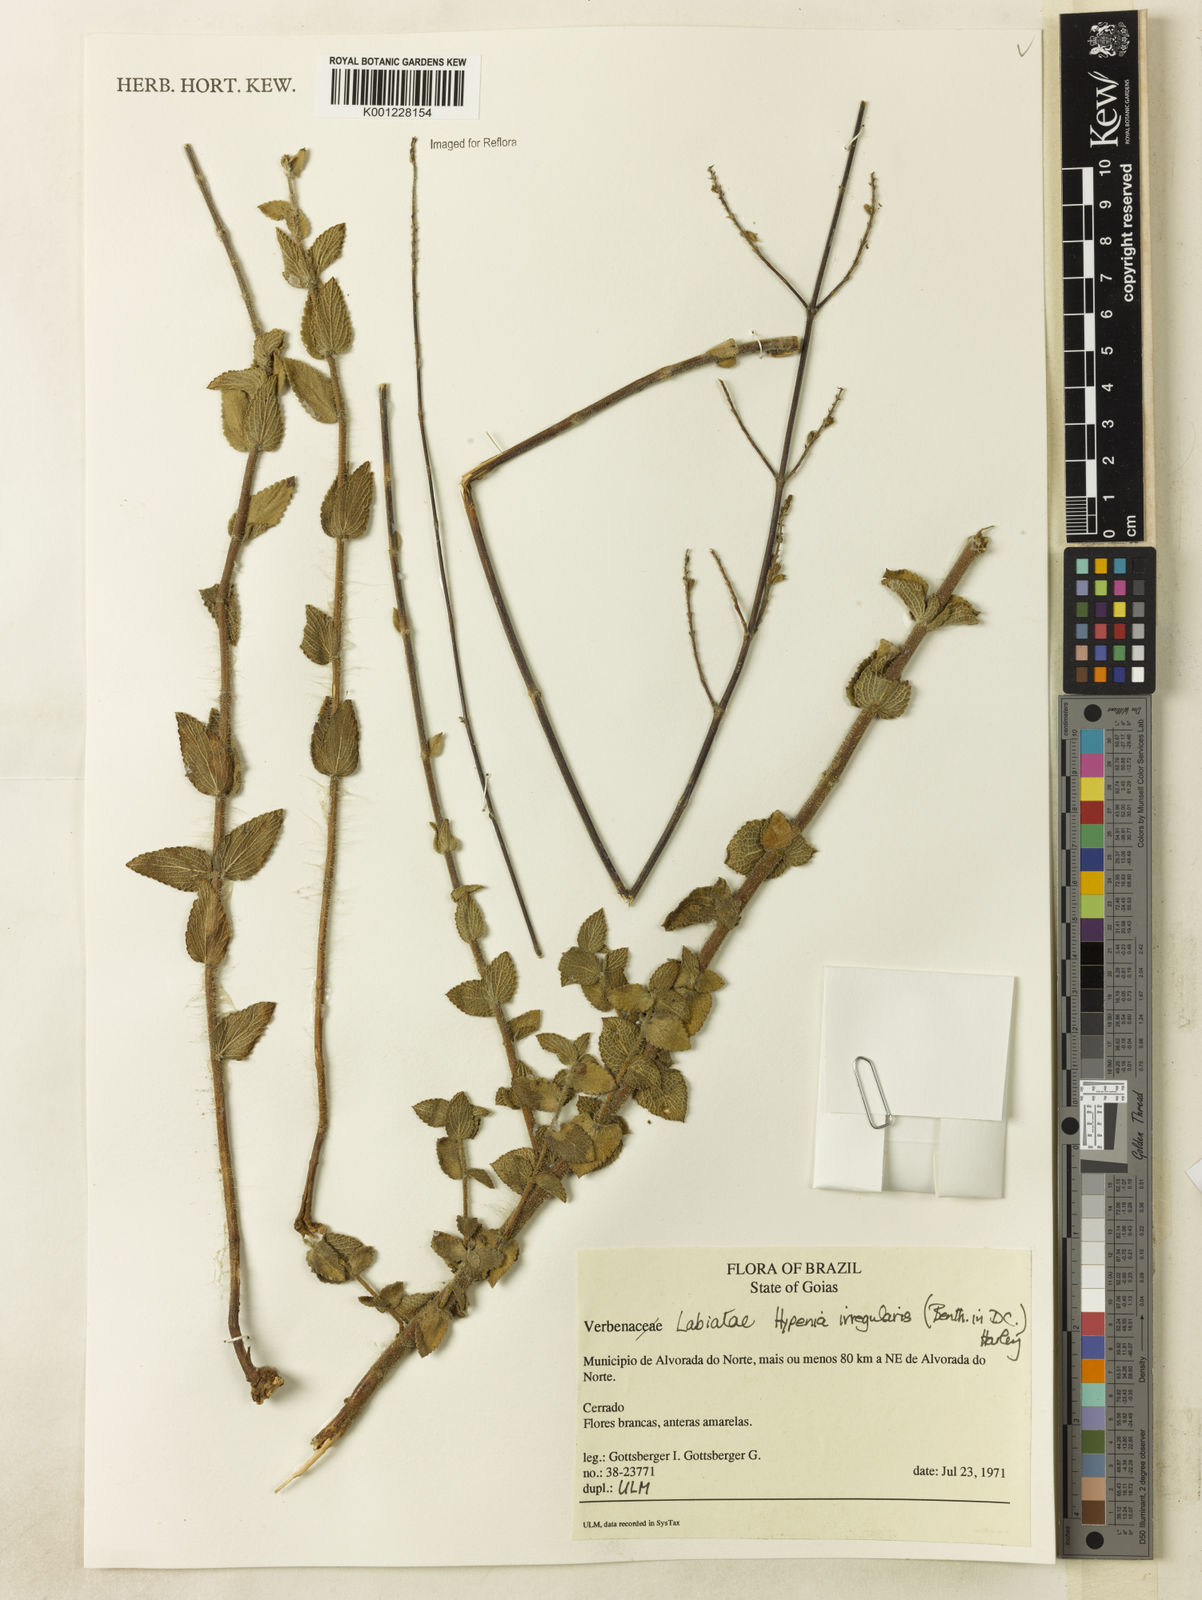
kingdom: Plantae
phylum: Tracheophyta
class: Magnoliopsida
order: Lamiales
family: Lamiaceae
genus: Hypenia
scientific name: Hypenia irregularis
